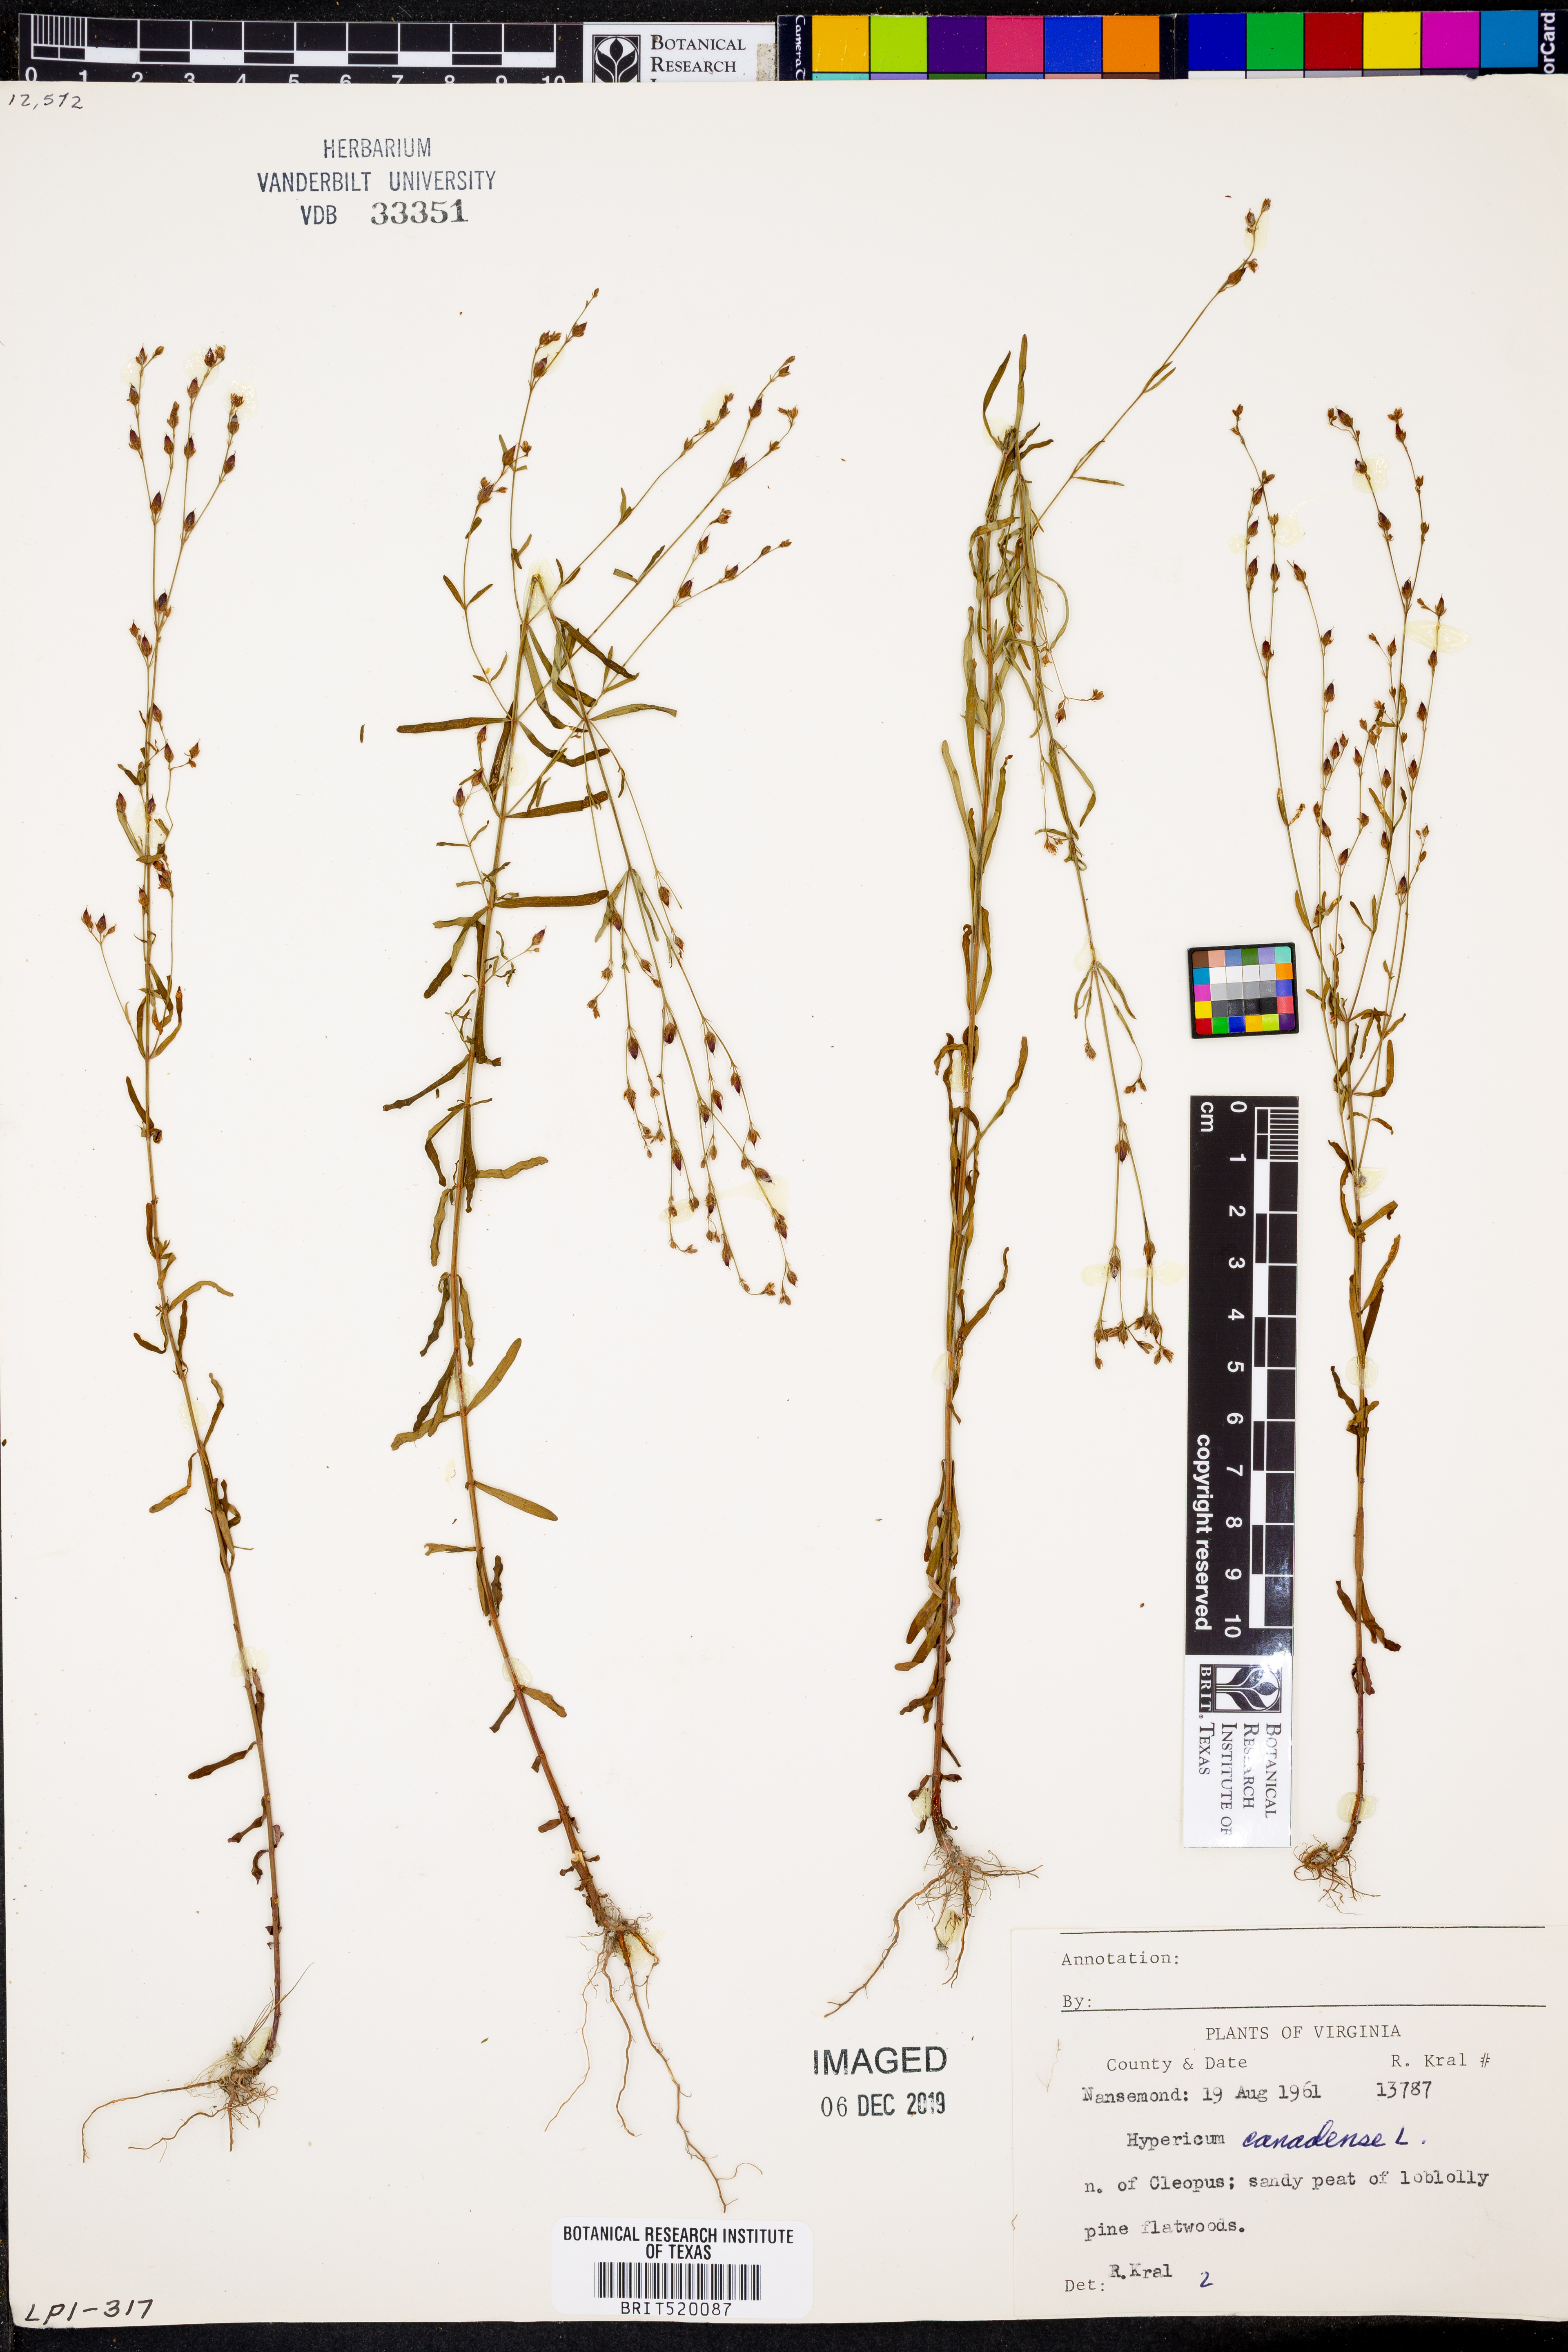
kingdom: Plantae
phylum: Tracheophyta
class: Magnoliopsida
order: Malpighiales
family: Hypericaceae
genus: Hypericum
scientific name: Hypericum canadense
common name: Irish st. john's-wort
